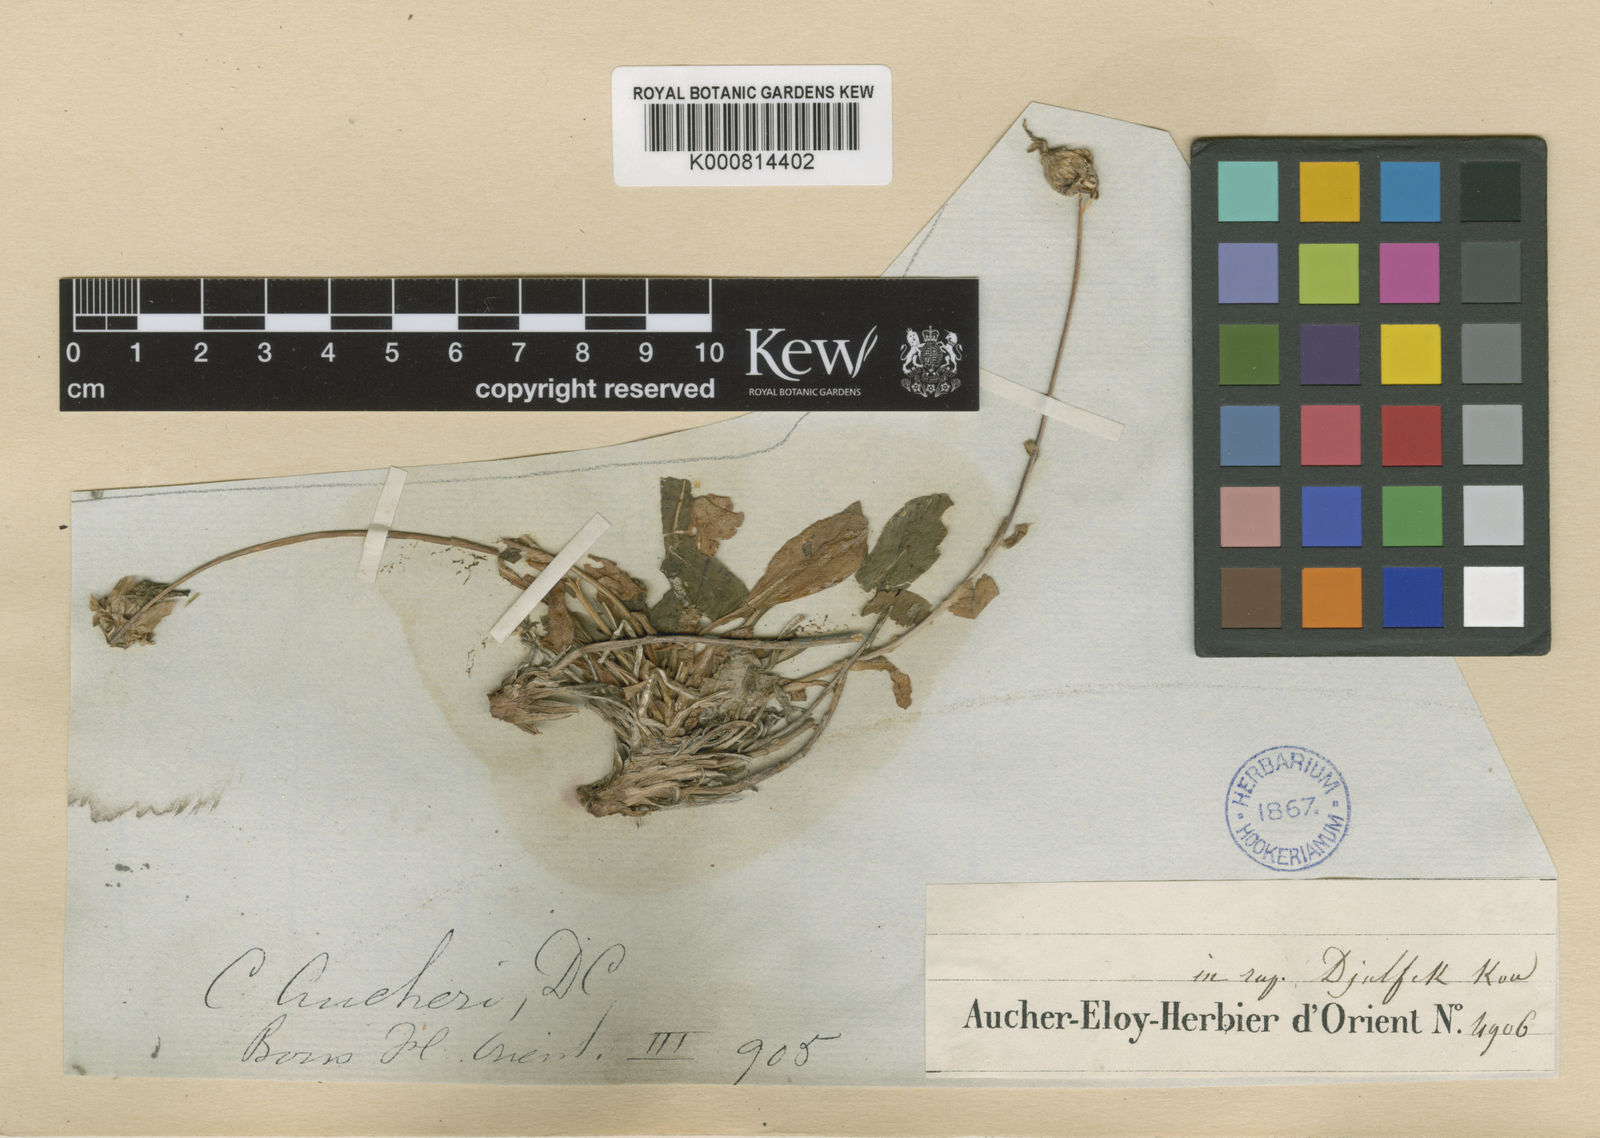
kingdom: Plantae
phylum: Tracheophyta
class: Magnoliopsida
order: Asterales
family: Campanulaceae
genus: Campanula
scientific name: Campanula saxifraga
